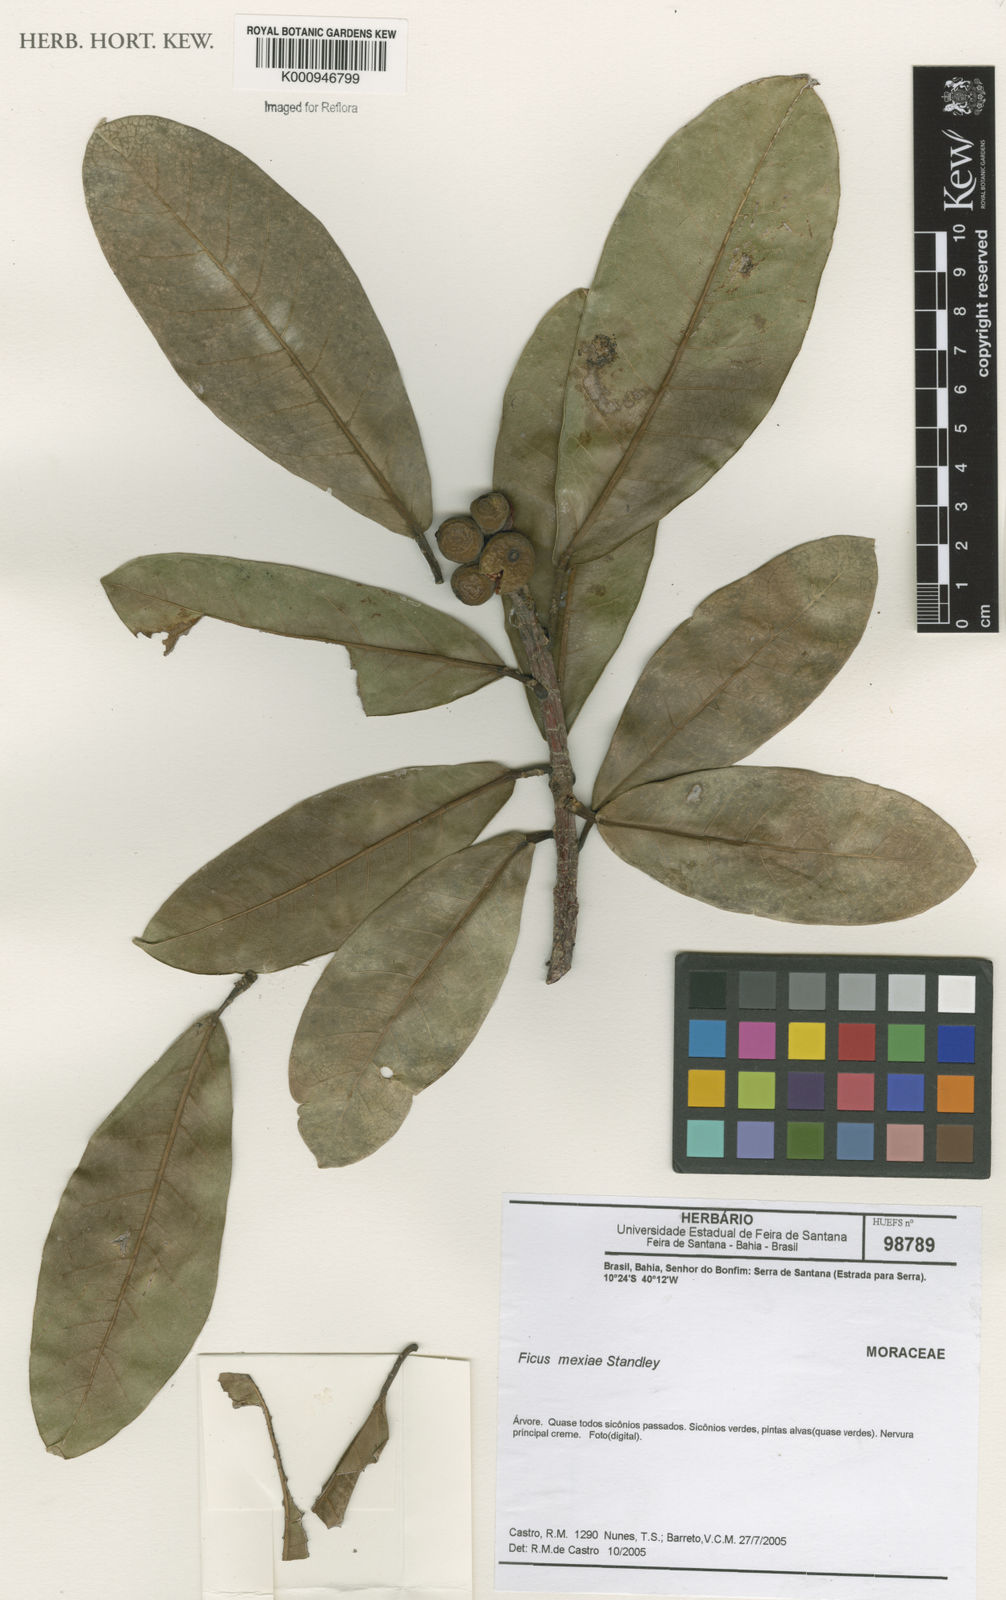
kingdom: Plantae
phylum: Tracheophyta
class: Magnoliopsida
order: Rosales
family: Moraceae
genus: Ficus
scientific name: Ficus mexiae
